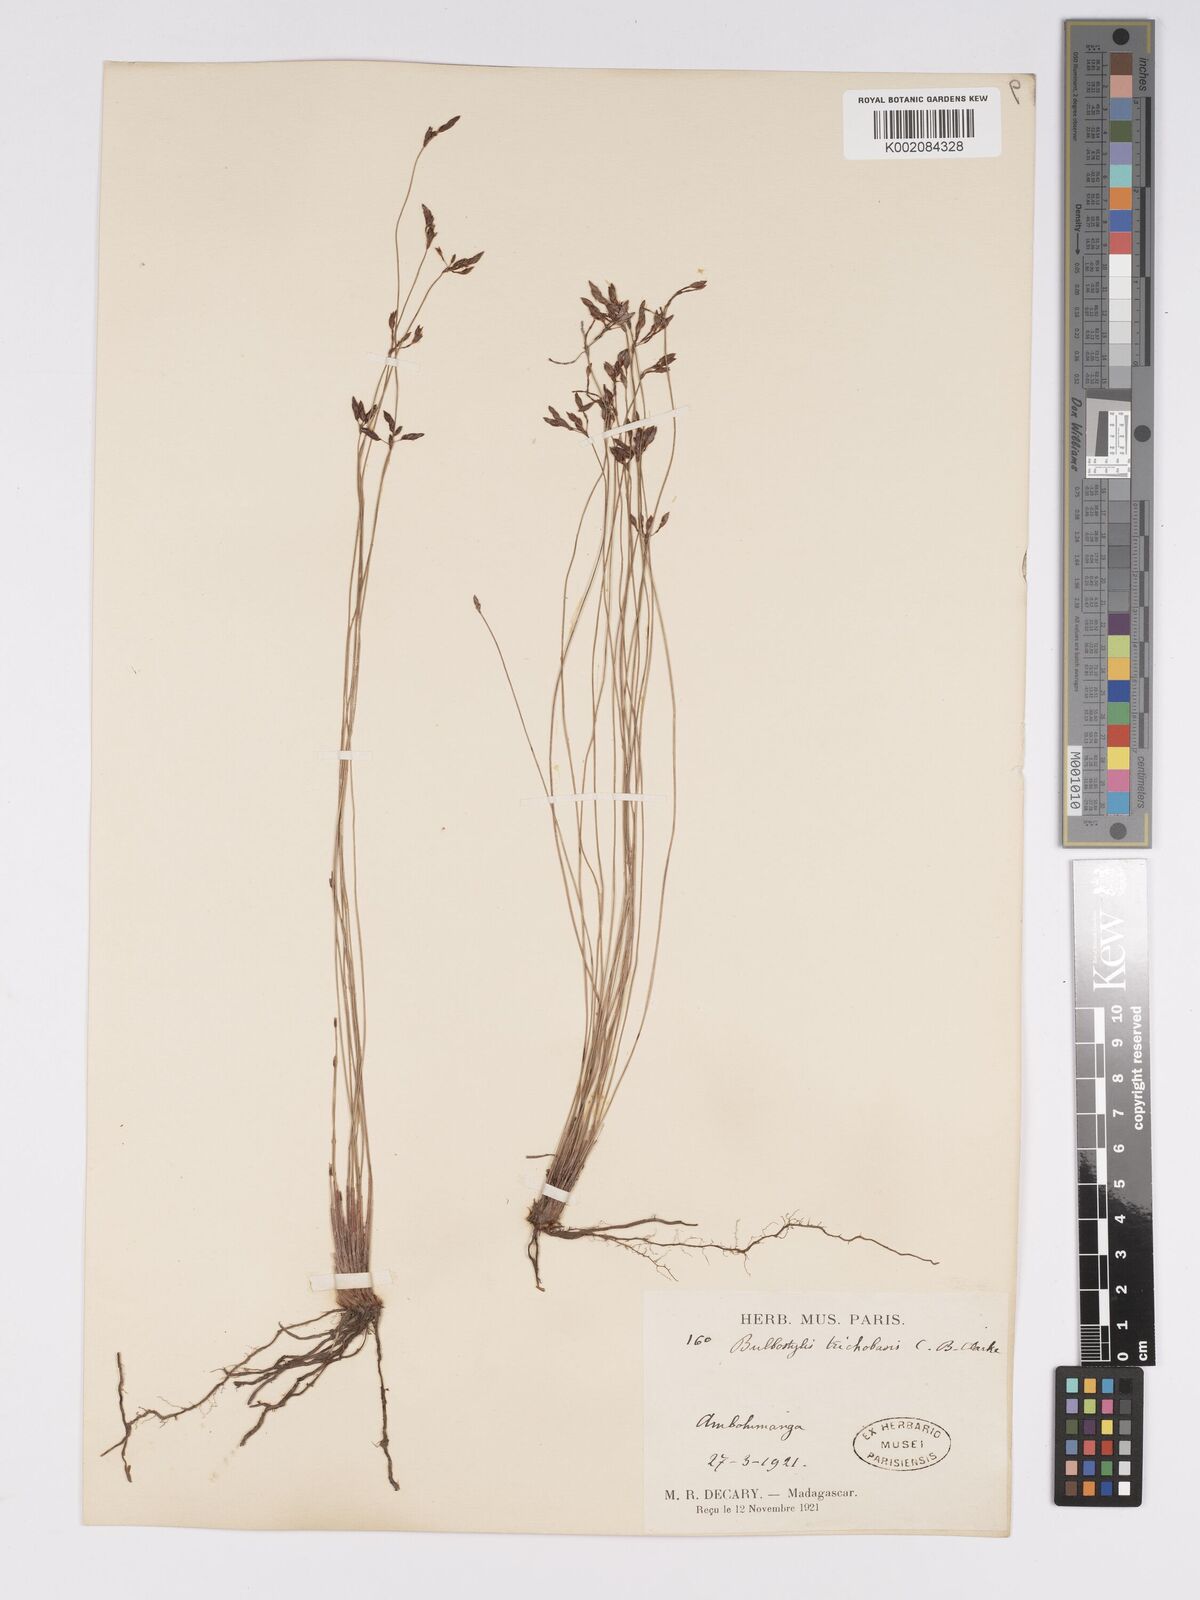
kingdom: Plantae
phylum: Tracheophyta
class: Liliopsida
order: Poales
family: Cyperaceae
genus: Bulbostylis
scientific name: Bulbostylis trichobasis
